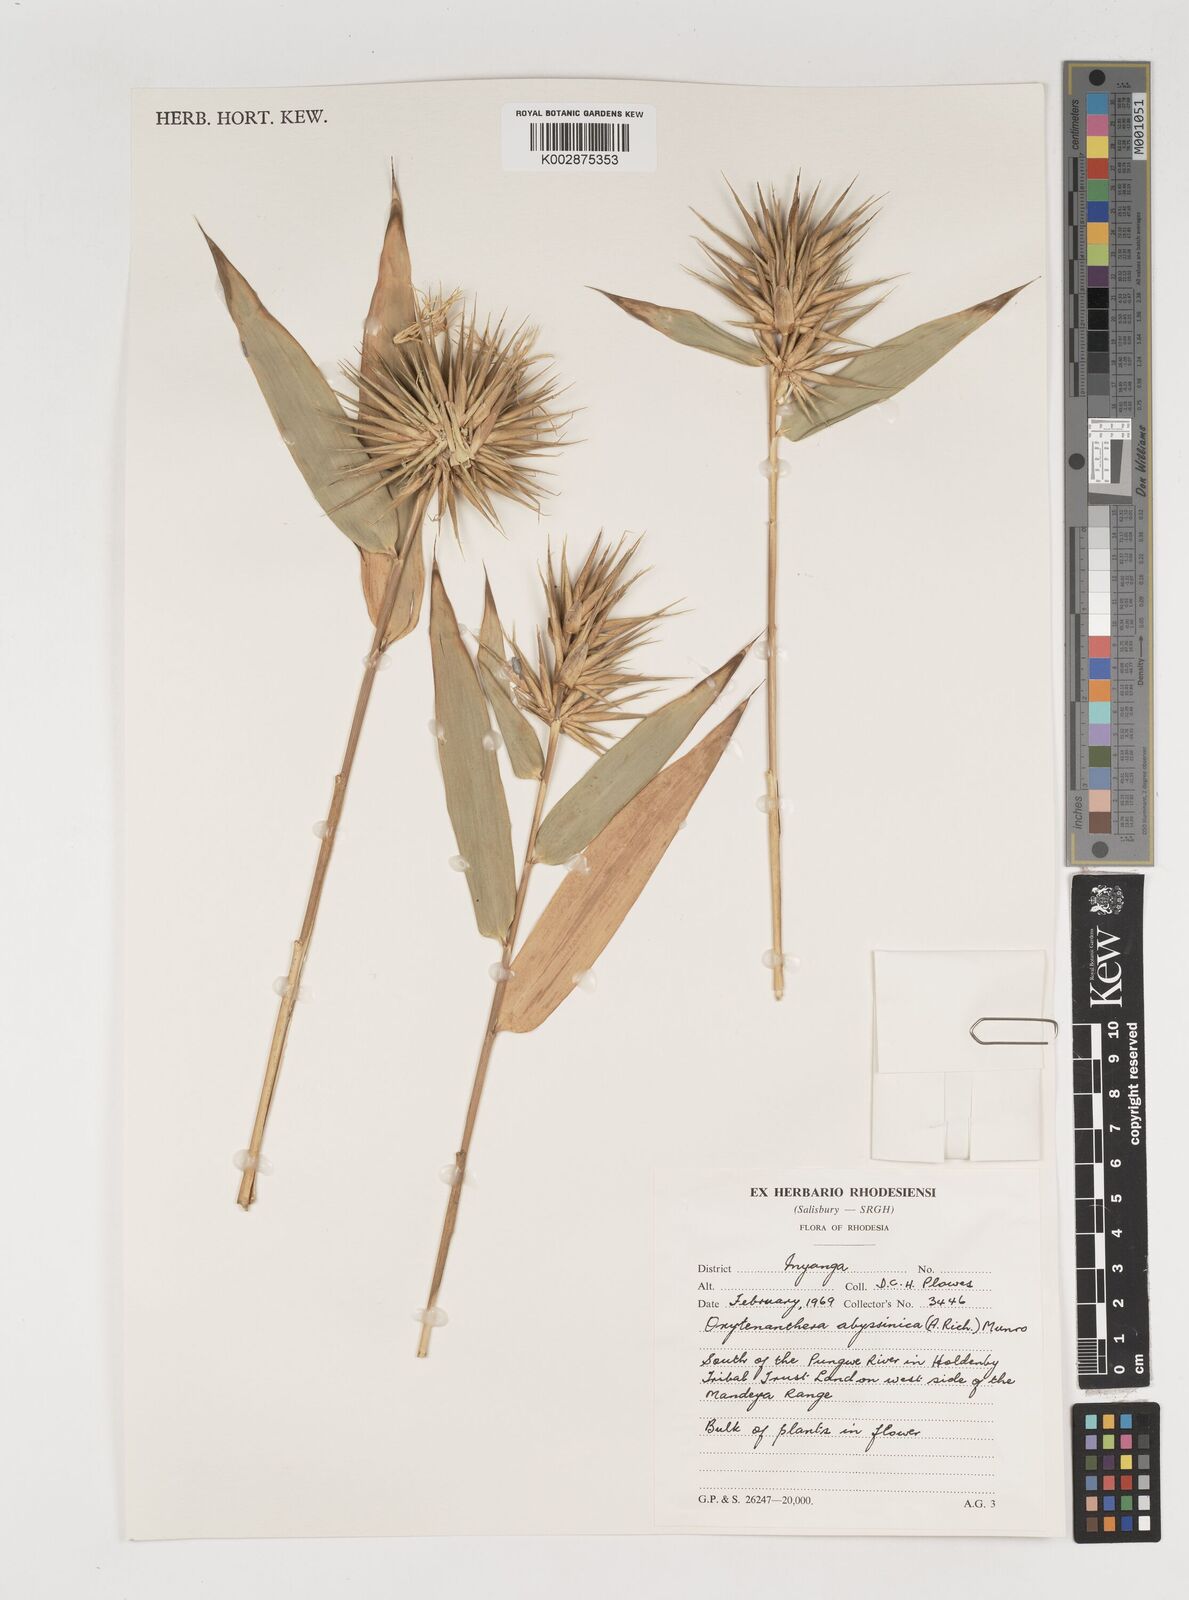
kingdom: Plantae
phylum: Tracheophyta
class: Liliopsida
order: Poales
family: Poaceae
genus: Oxytenanthera
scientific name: Oxytenanthera abyssinica
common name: Wine bamboo
